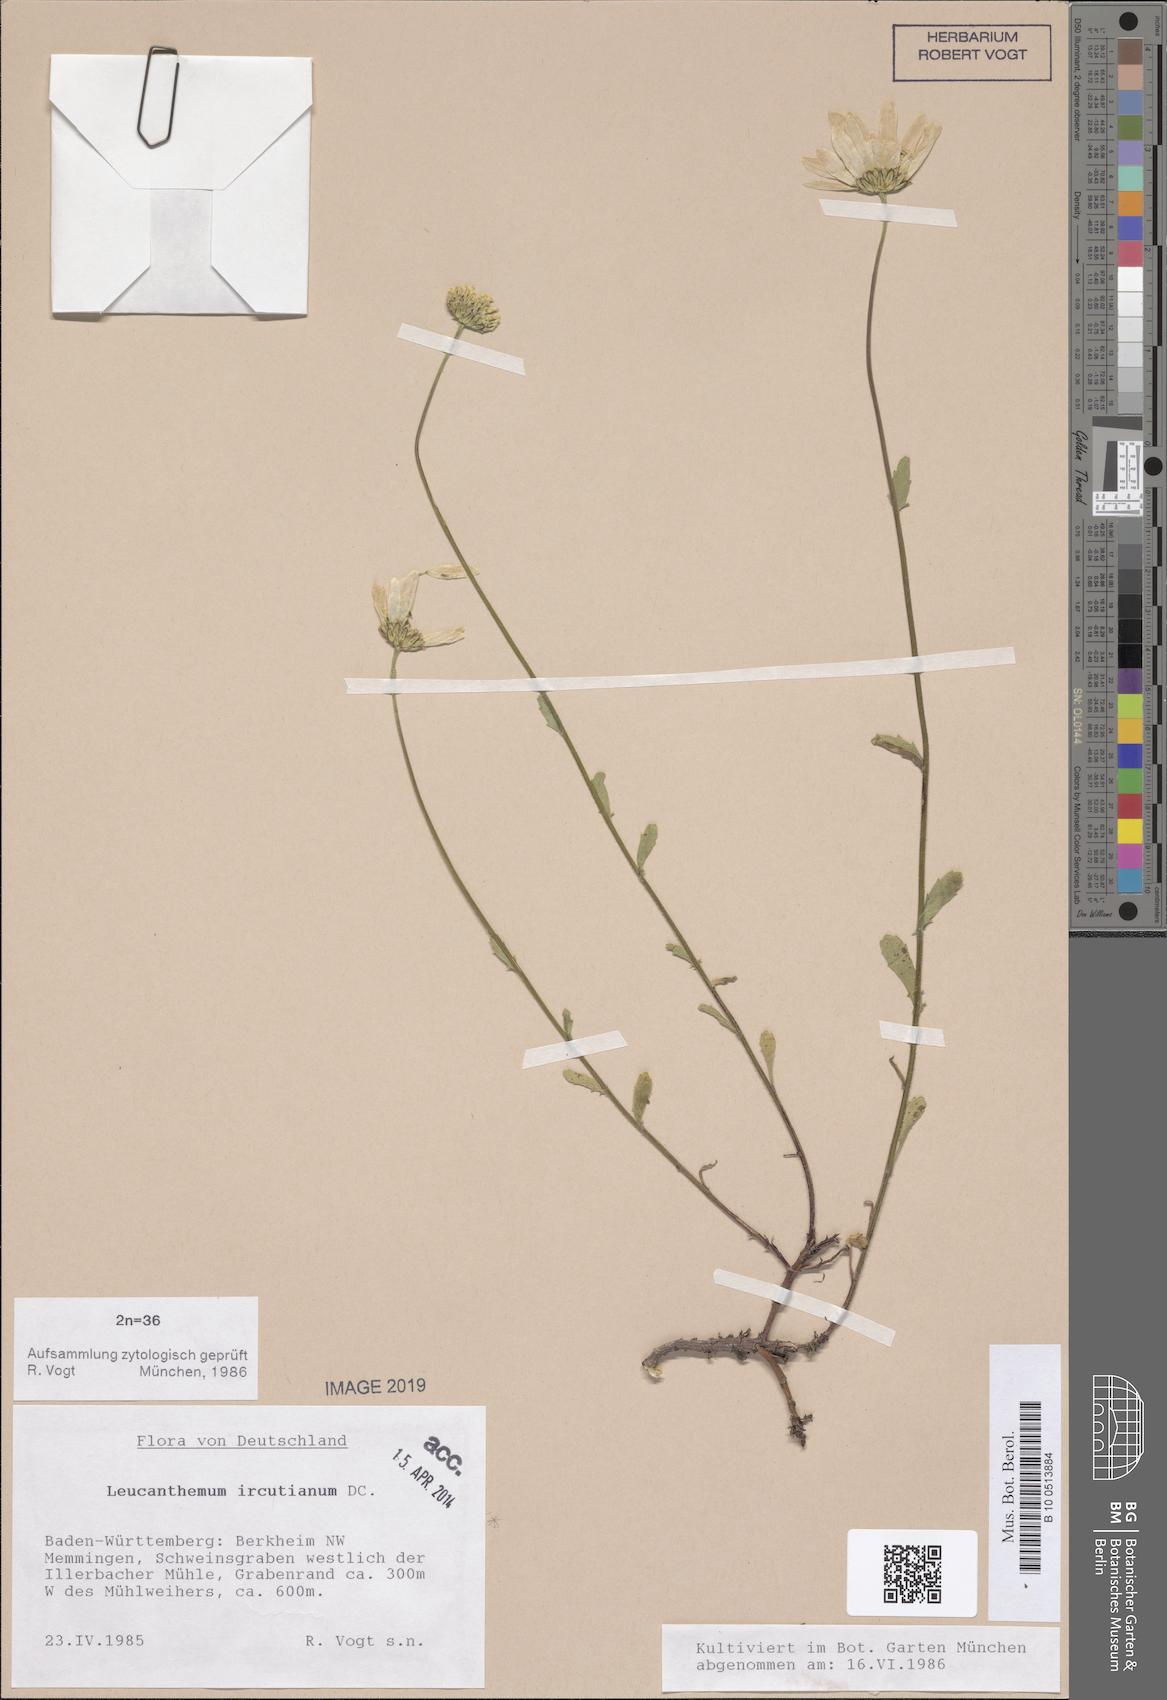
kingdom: Plantae
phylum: Tracheophyta
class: Magnoliopsida
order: Asterales
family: Asteraceae
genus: Leucanthemum
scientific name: Leucanthemum ircutianum
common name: Daisy
